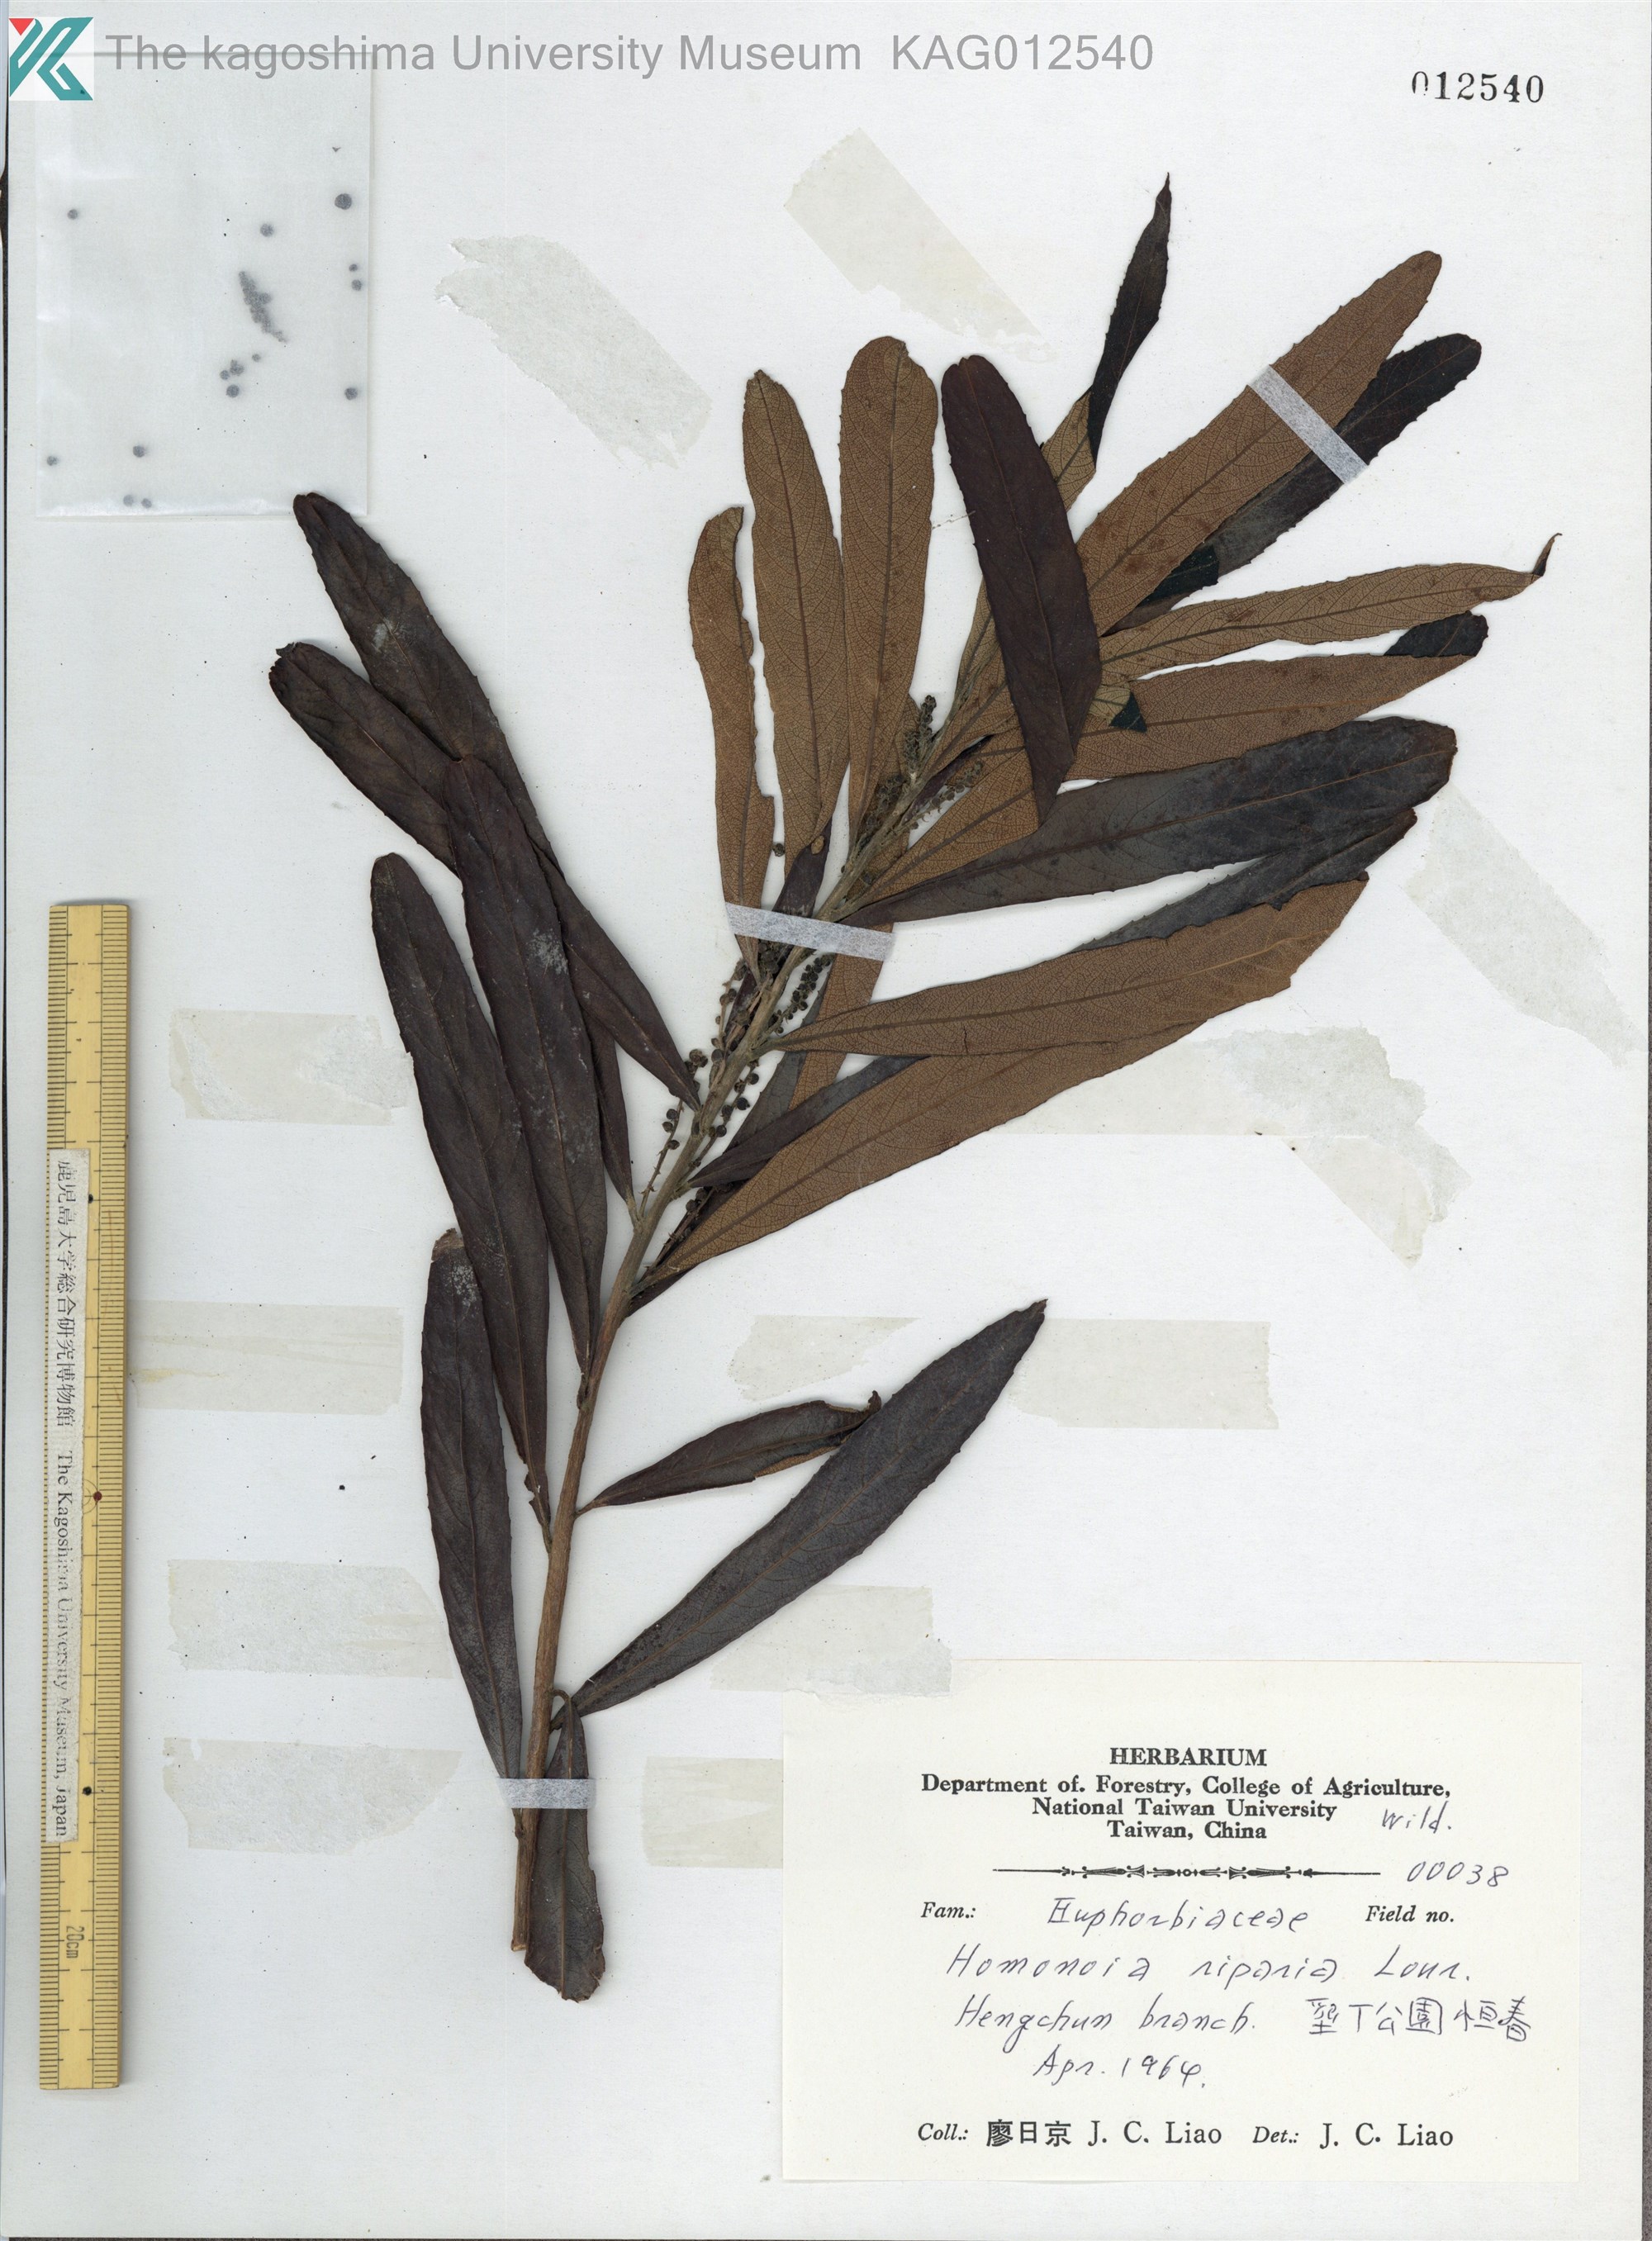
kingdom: Plantae
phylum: Tracheophyta
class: Magnoliopsida
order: Malpighiales
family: Euphorbiaceae
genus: Homonoia
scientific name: Homonoia riparia
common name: Willow-leaved water croton
